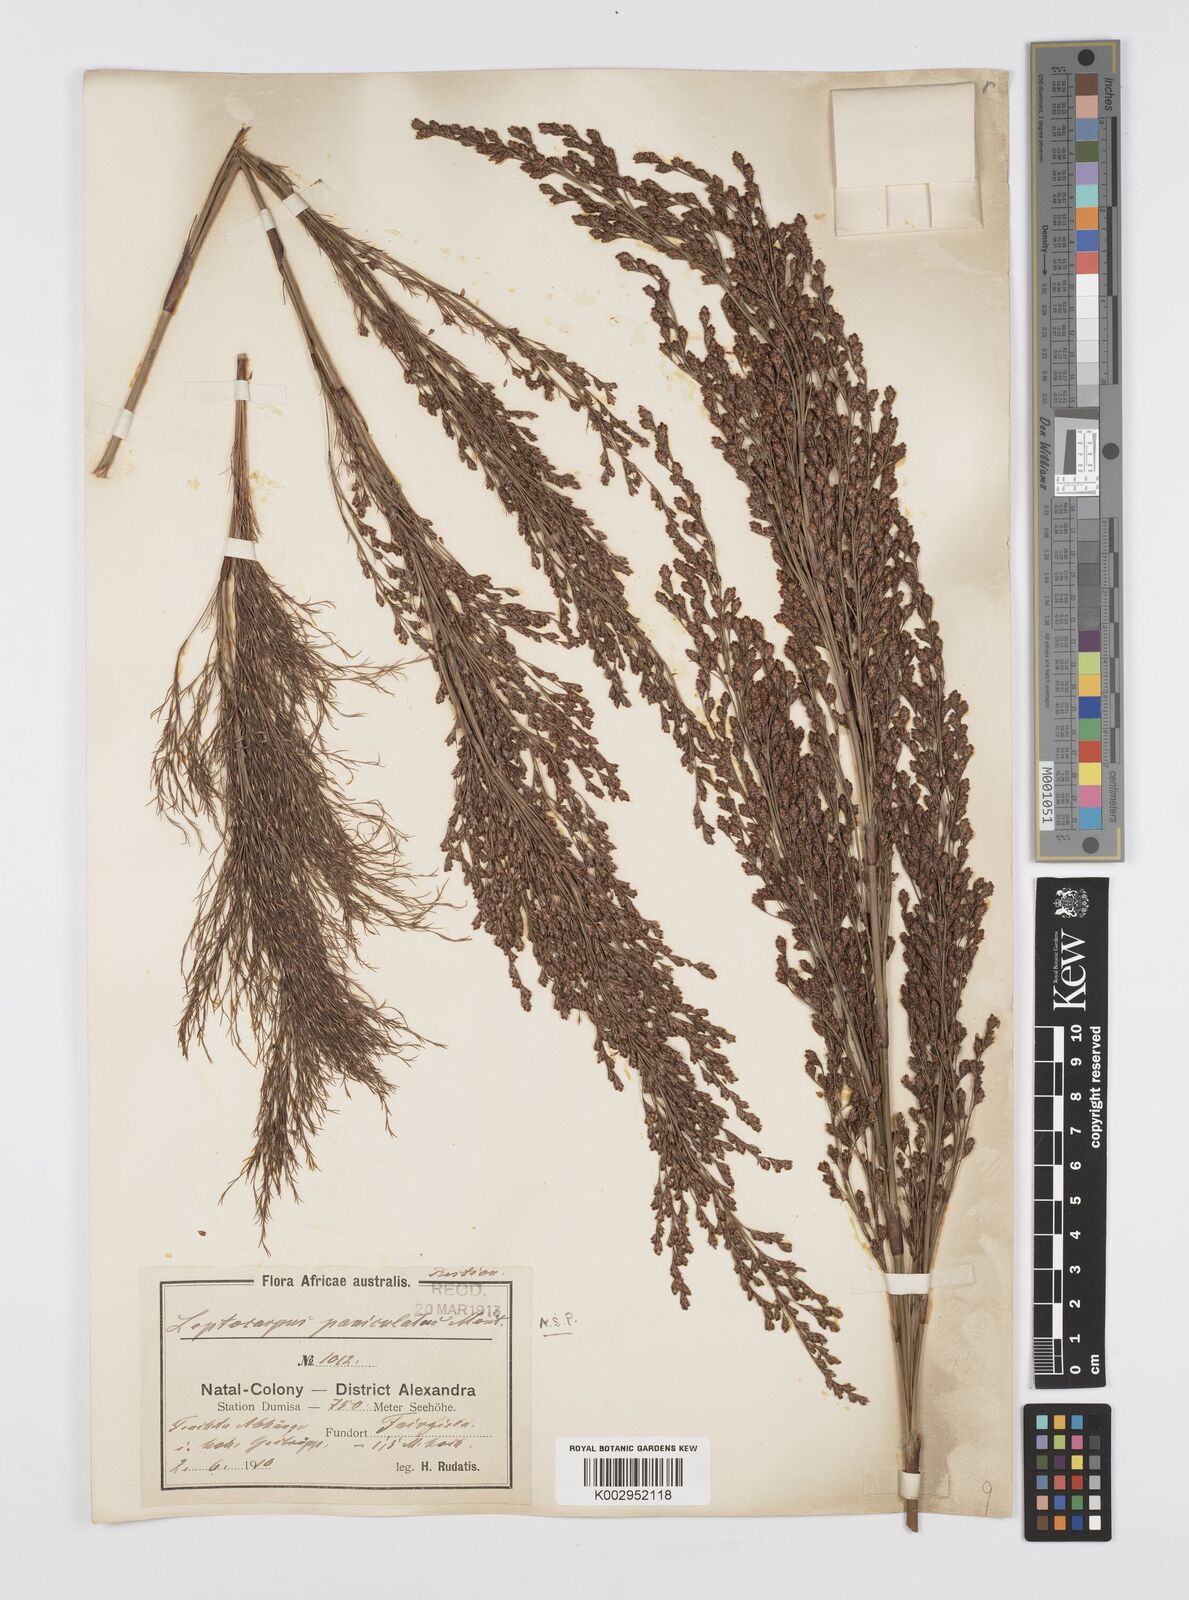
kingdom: Plantae
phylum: Tracheophyta
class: Liliopsida
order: Poales
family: Restionaceae
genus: Restio
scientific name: Restio paniculatus
